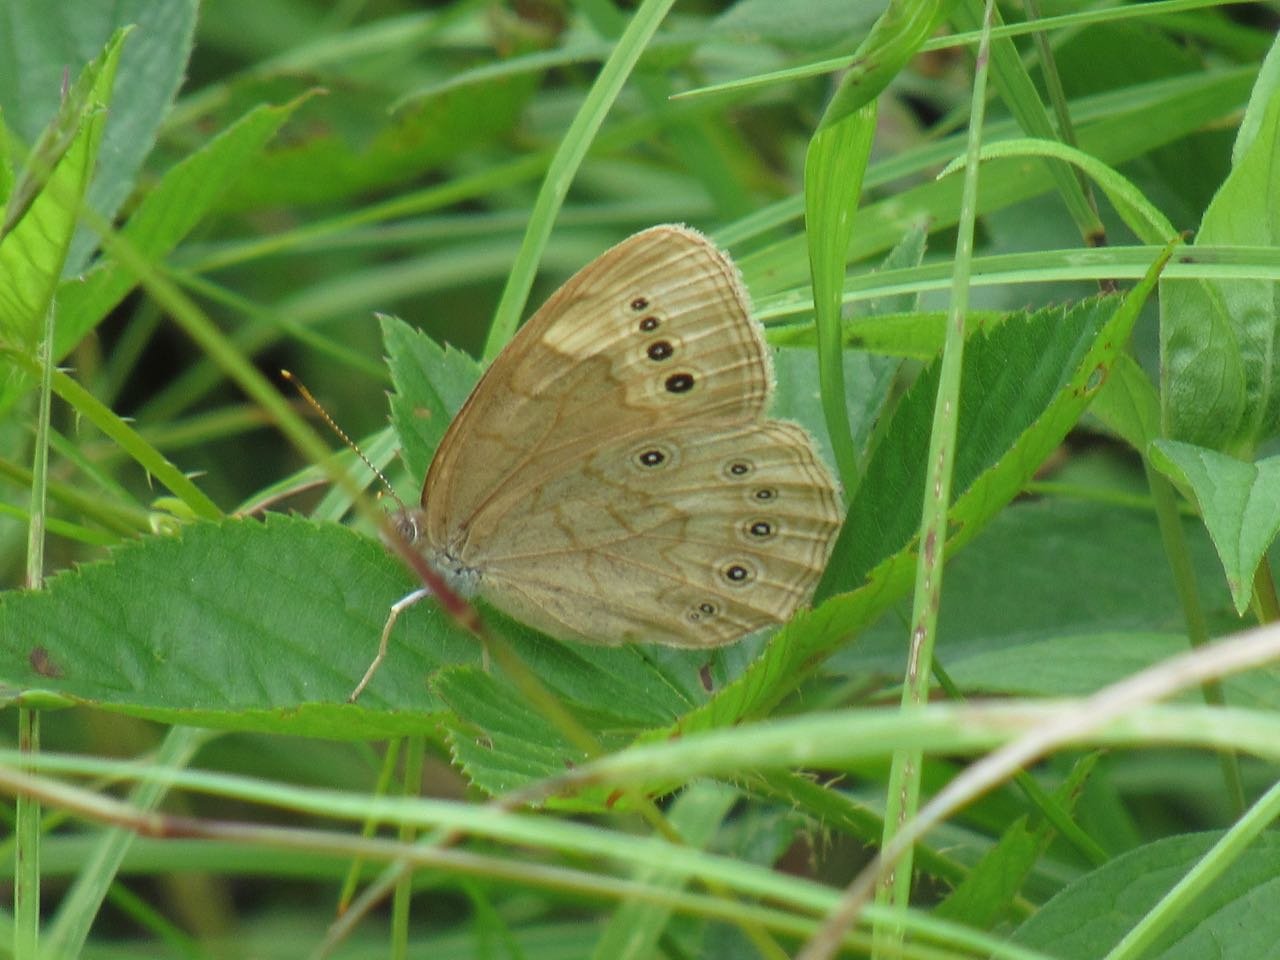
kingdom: Animalia
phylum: Arthropoda
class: Insecta
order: Lepidoptera
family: Nymphalidae
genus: Lethe
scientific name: Lethe eurydice
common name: Eyed Brown
